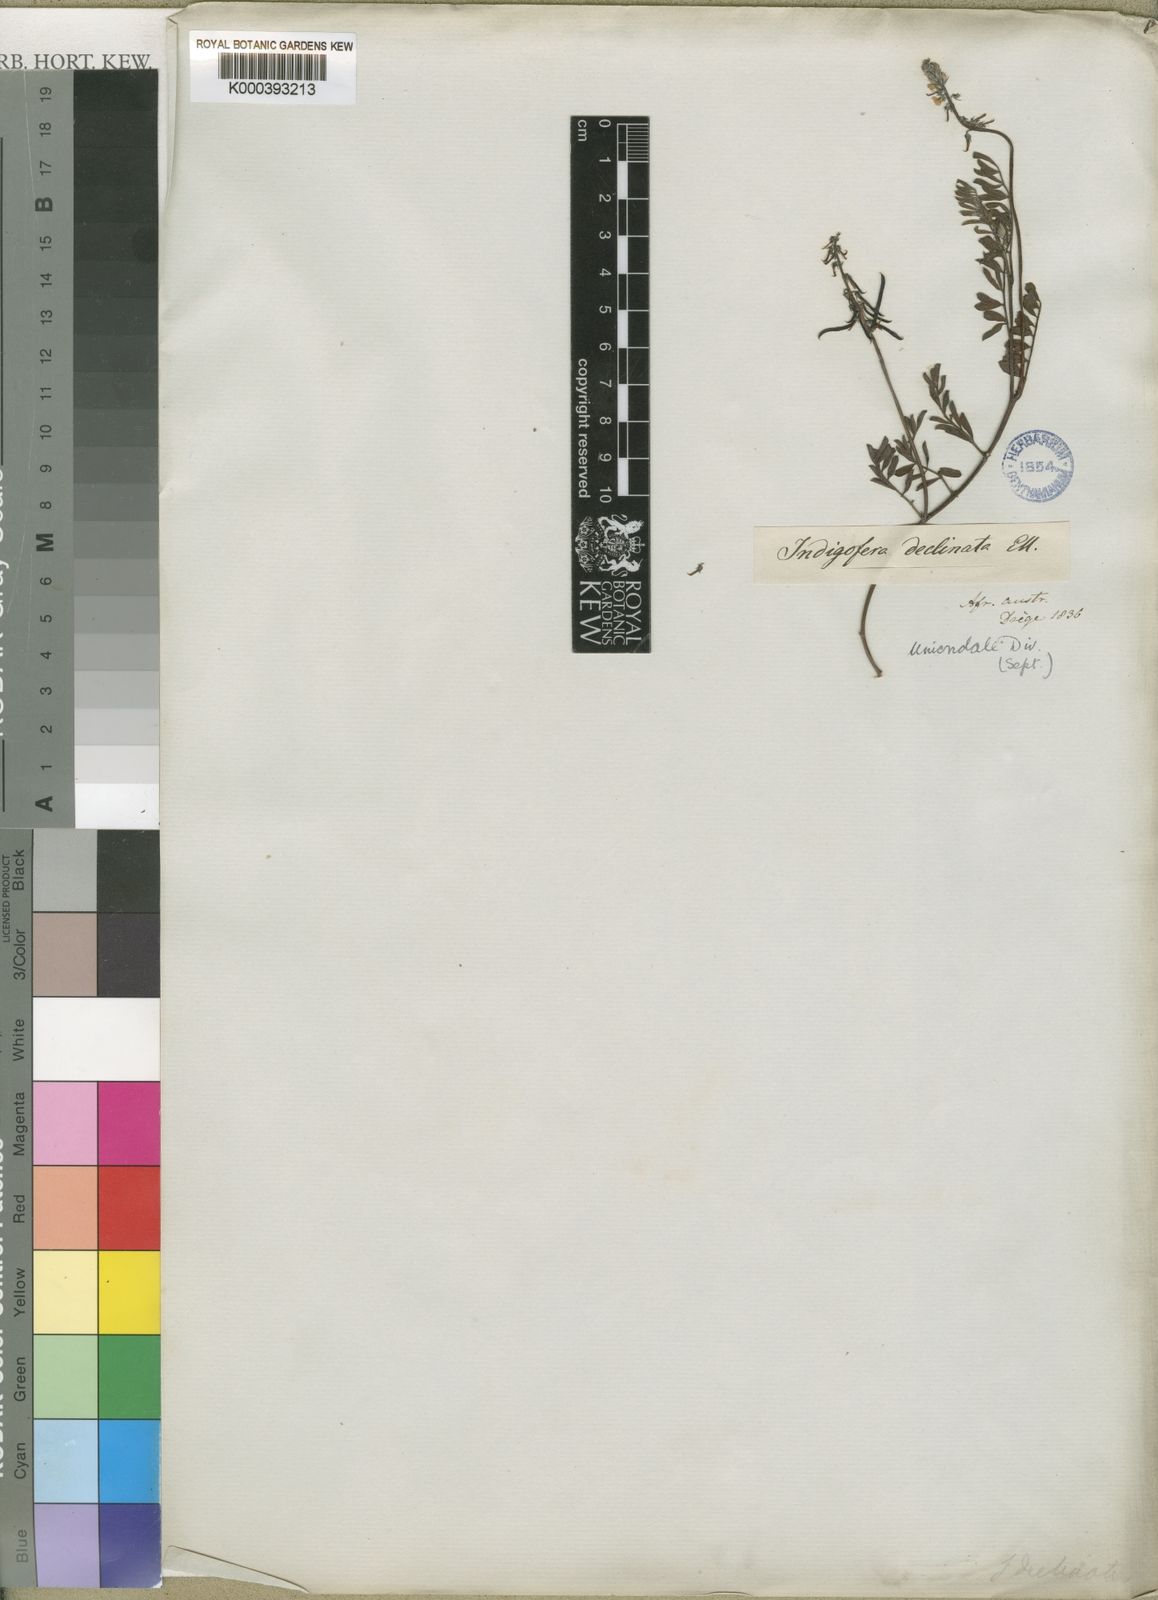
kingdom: Plantae
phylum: Tracheophyta
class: Magnoliopsida
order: Fabales
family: Fabaceae
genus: Indigofera
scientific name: Indigofera declinata
